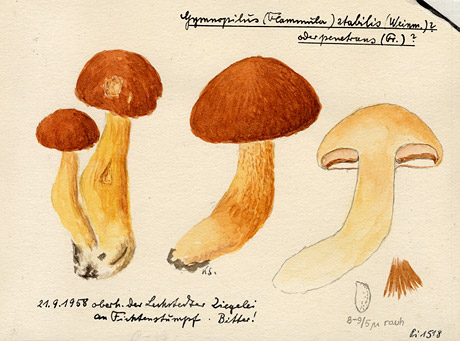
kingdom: Plantae
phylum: Tracheophyta
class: Pinopsida
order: Pinales
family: Pinaceae
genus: Picea
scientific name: Picea
